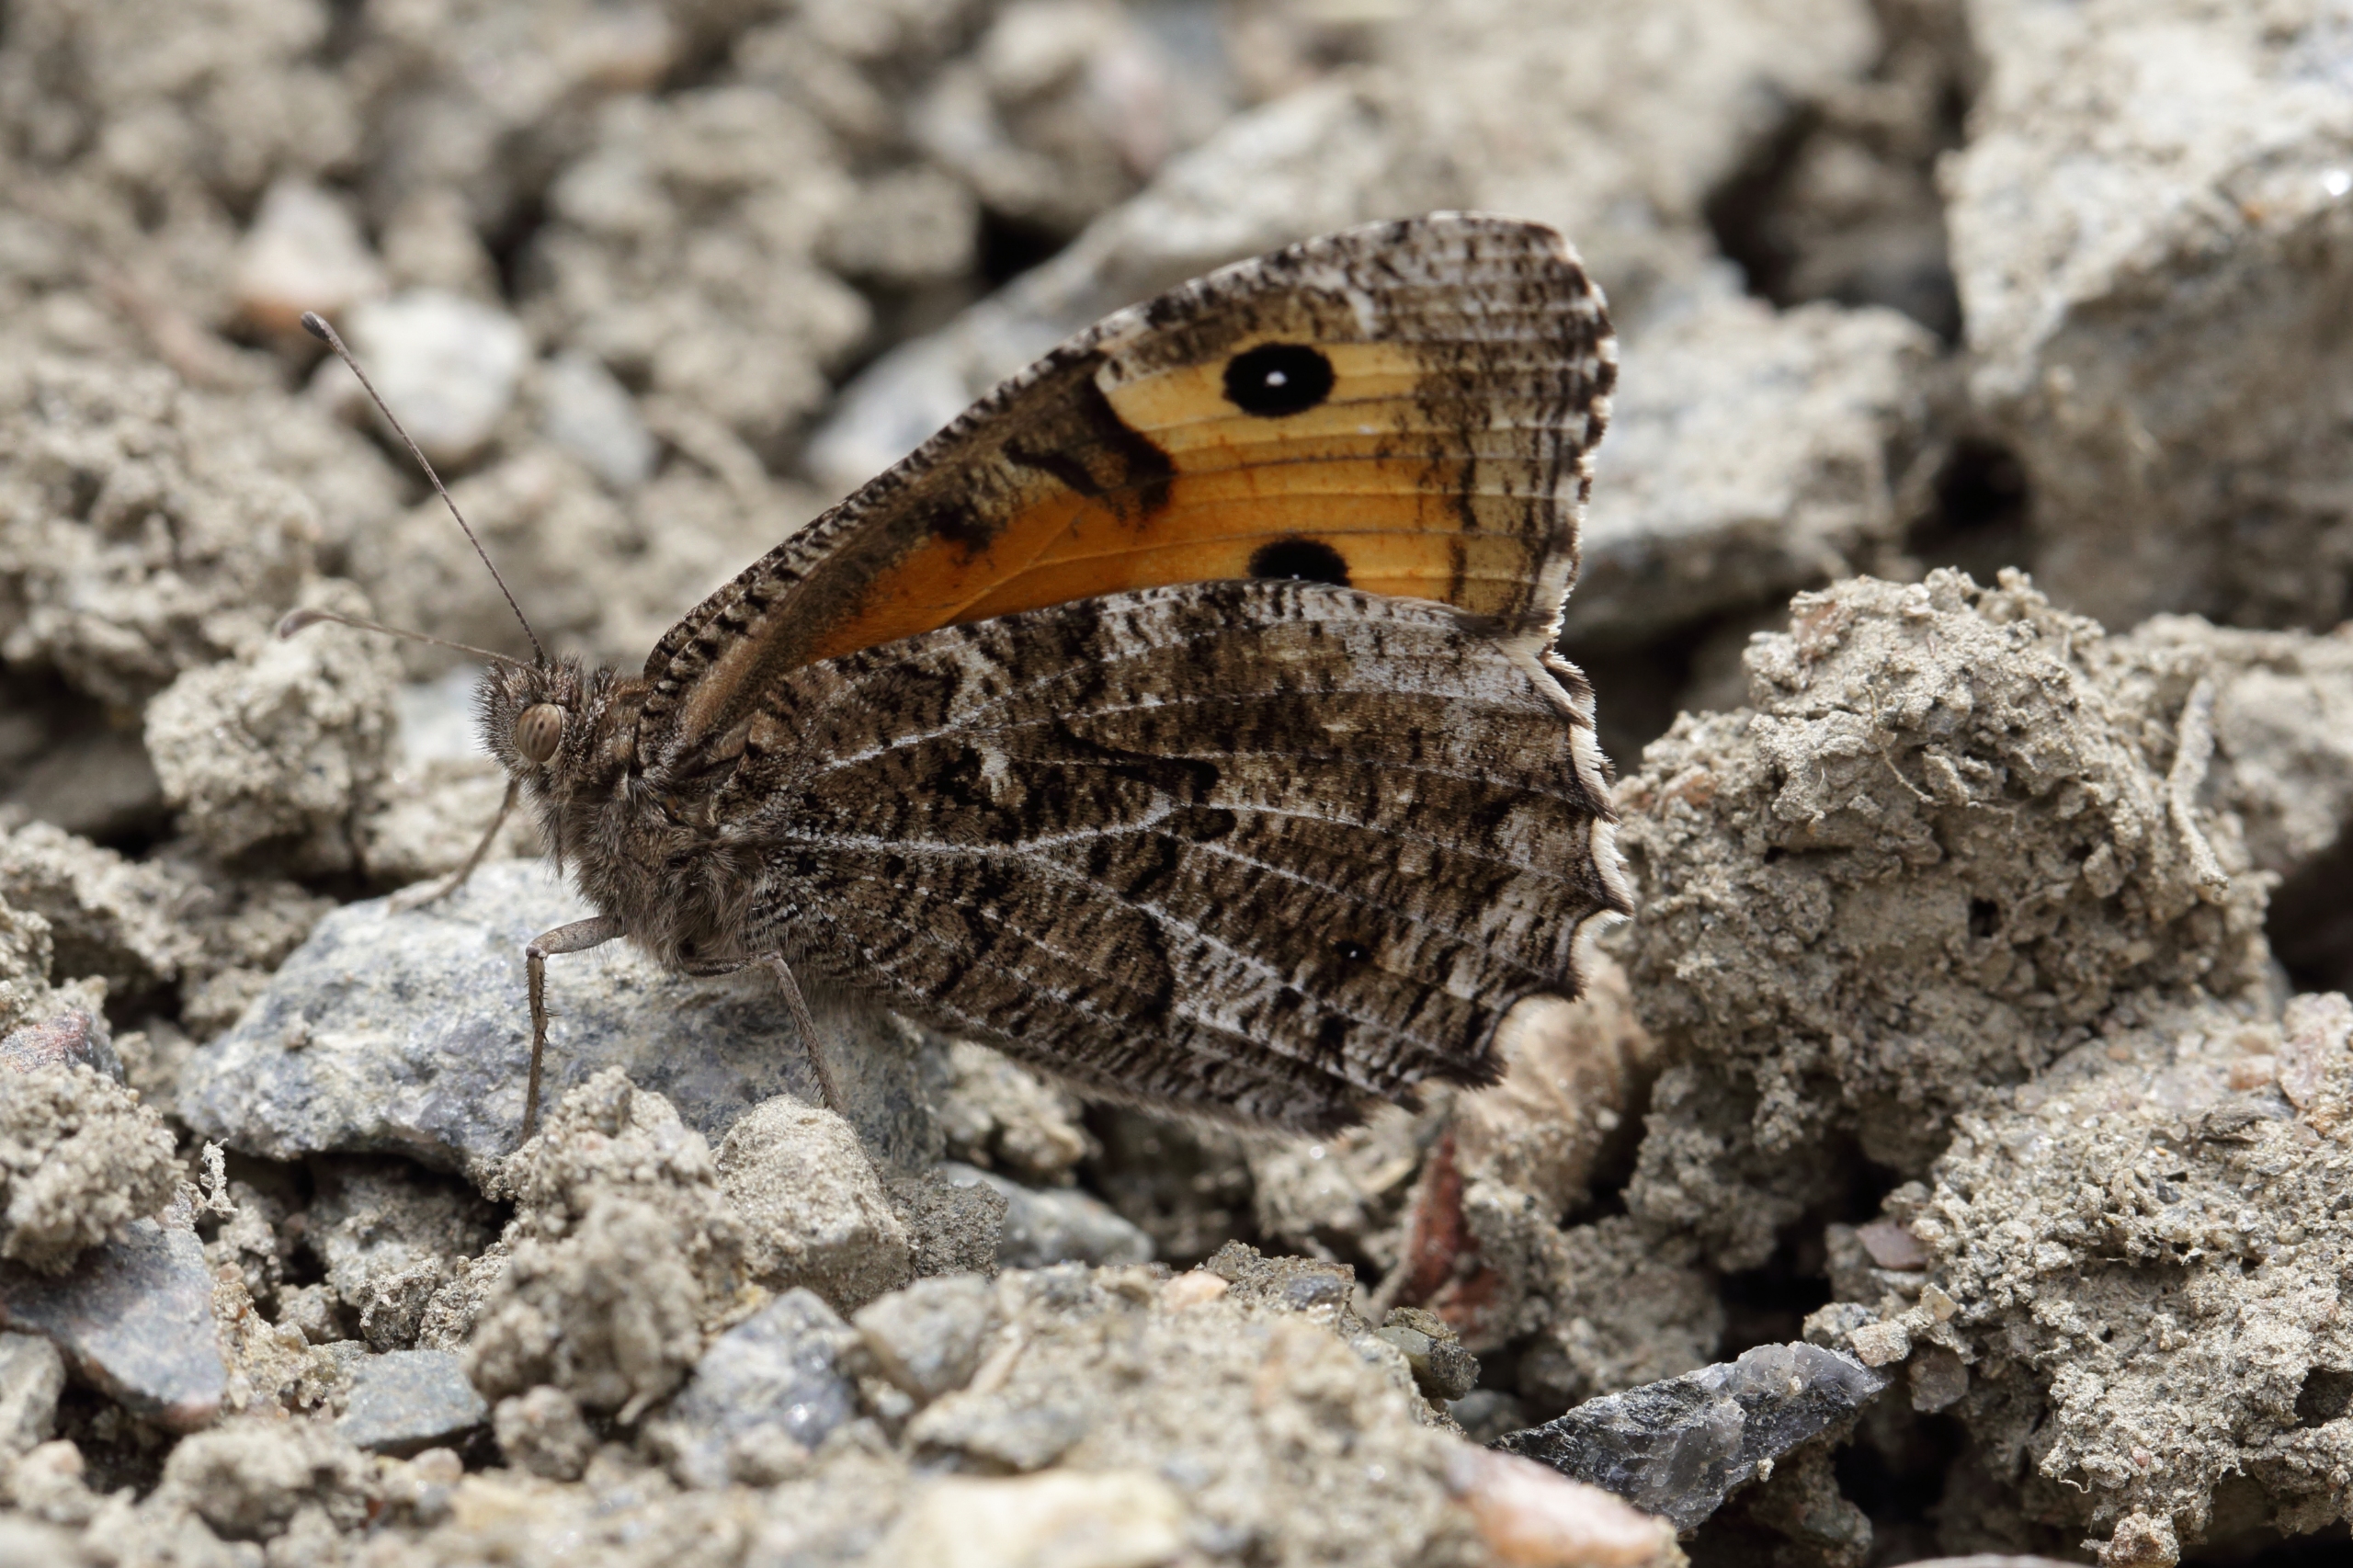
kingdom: Animalia
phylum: Arthropoda
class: Insecta
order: Lepidoptera
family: Nymphalidae
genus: Hipparchia
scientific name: Hipparchia semele
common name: Sandrandøje
